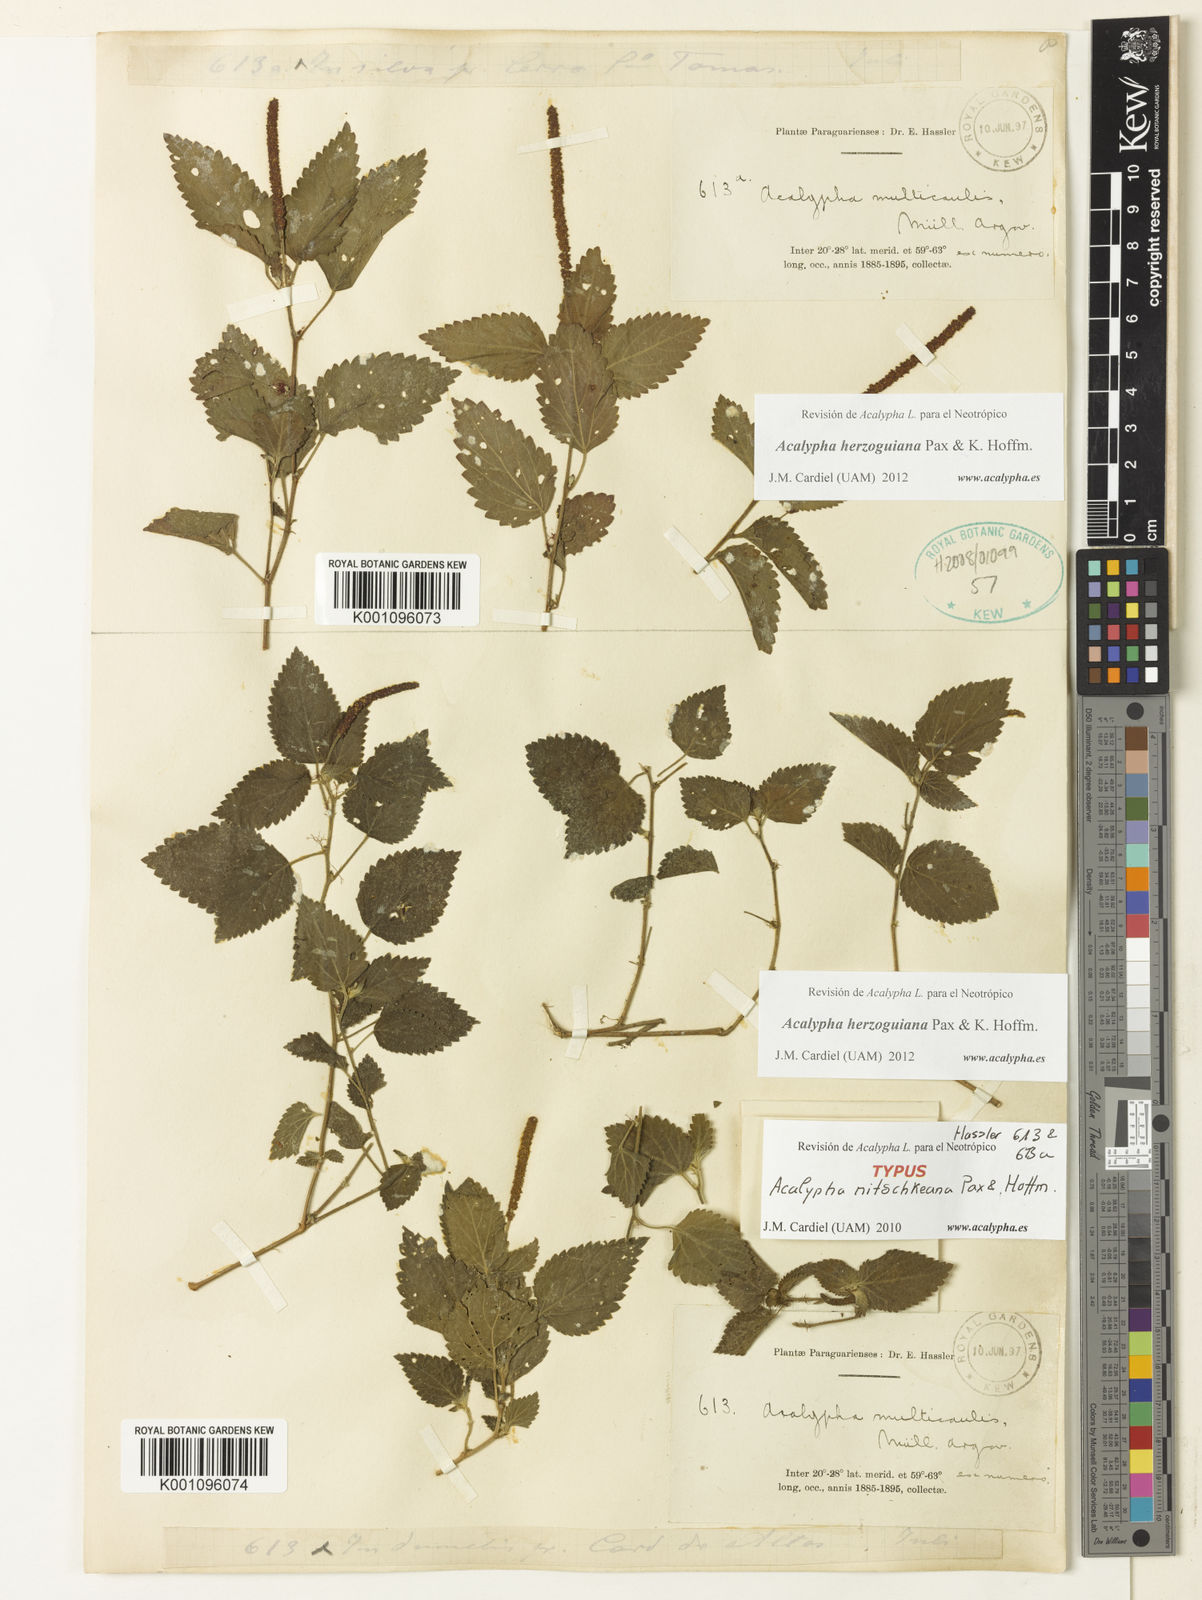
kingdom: Plantae
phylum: Tracheophyta
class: Magnoliopsida
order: Malpighiales
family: Euphorbiaceae
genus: Acalypha
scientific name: Acalypha herzogiana
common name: Dwarf-cattail
